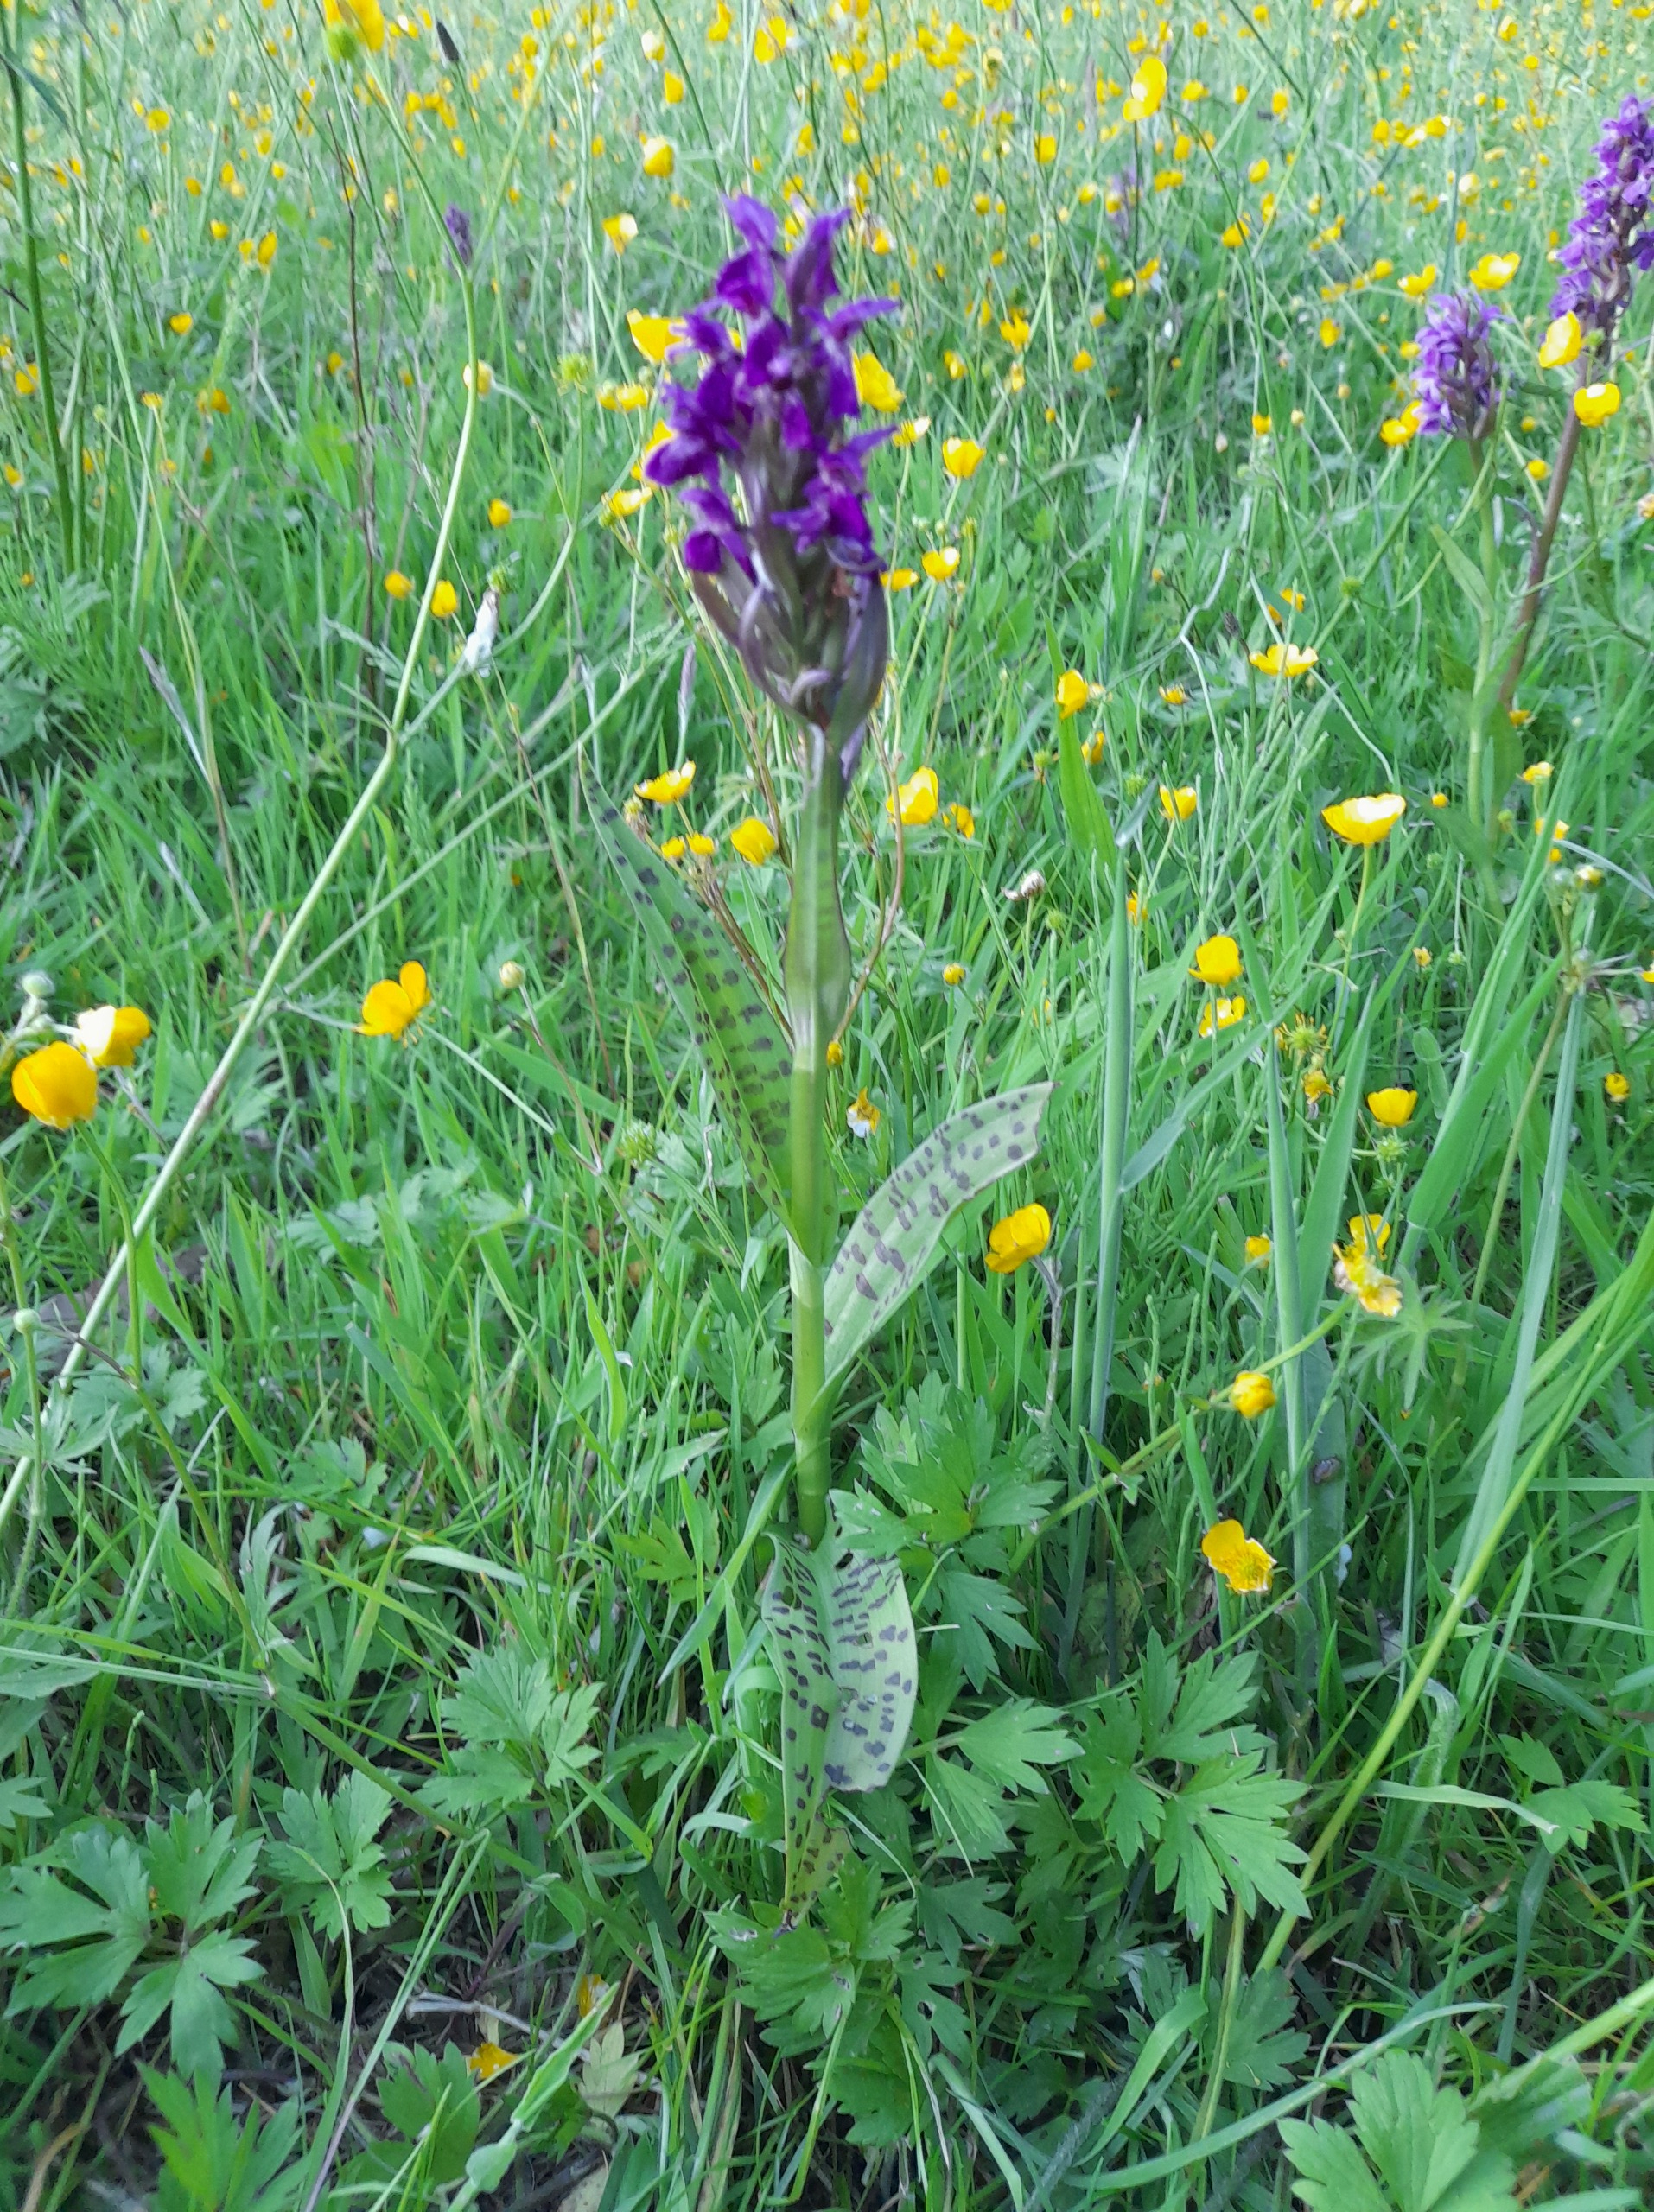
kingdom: Plantae
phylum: Tracheophyta
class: Liliopsida
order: Asparagales
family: Orchidaceae
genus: Dactylorhiza
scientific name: Dactylorhiza majalis
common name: Maj-gøgeurt
